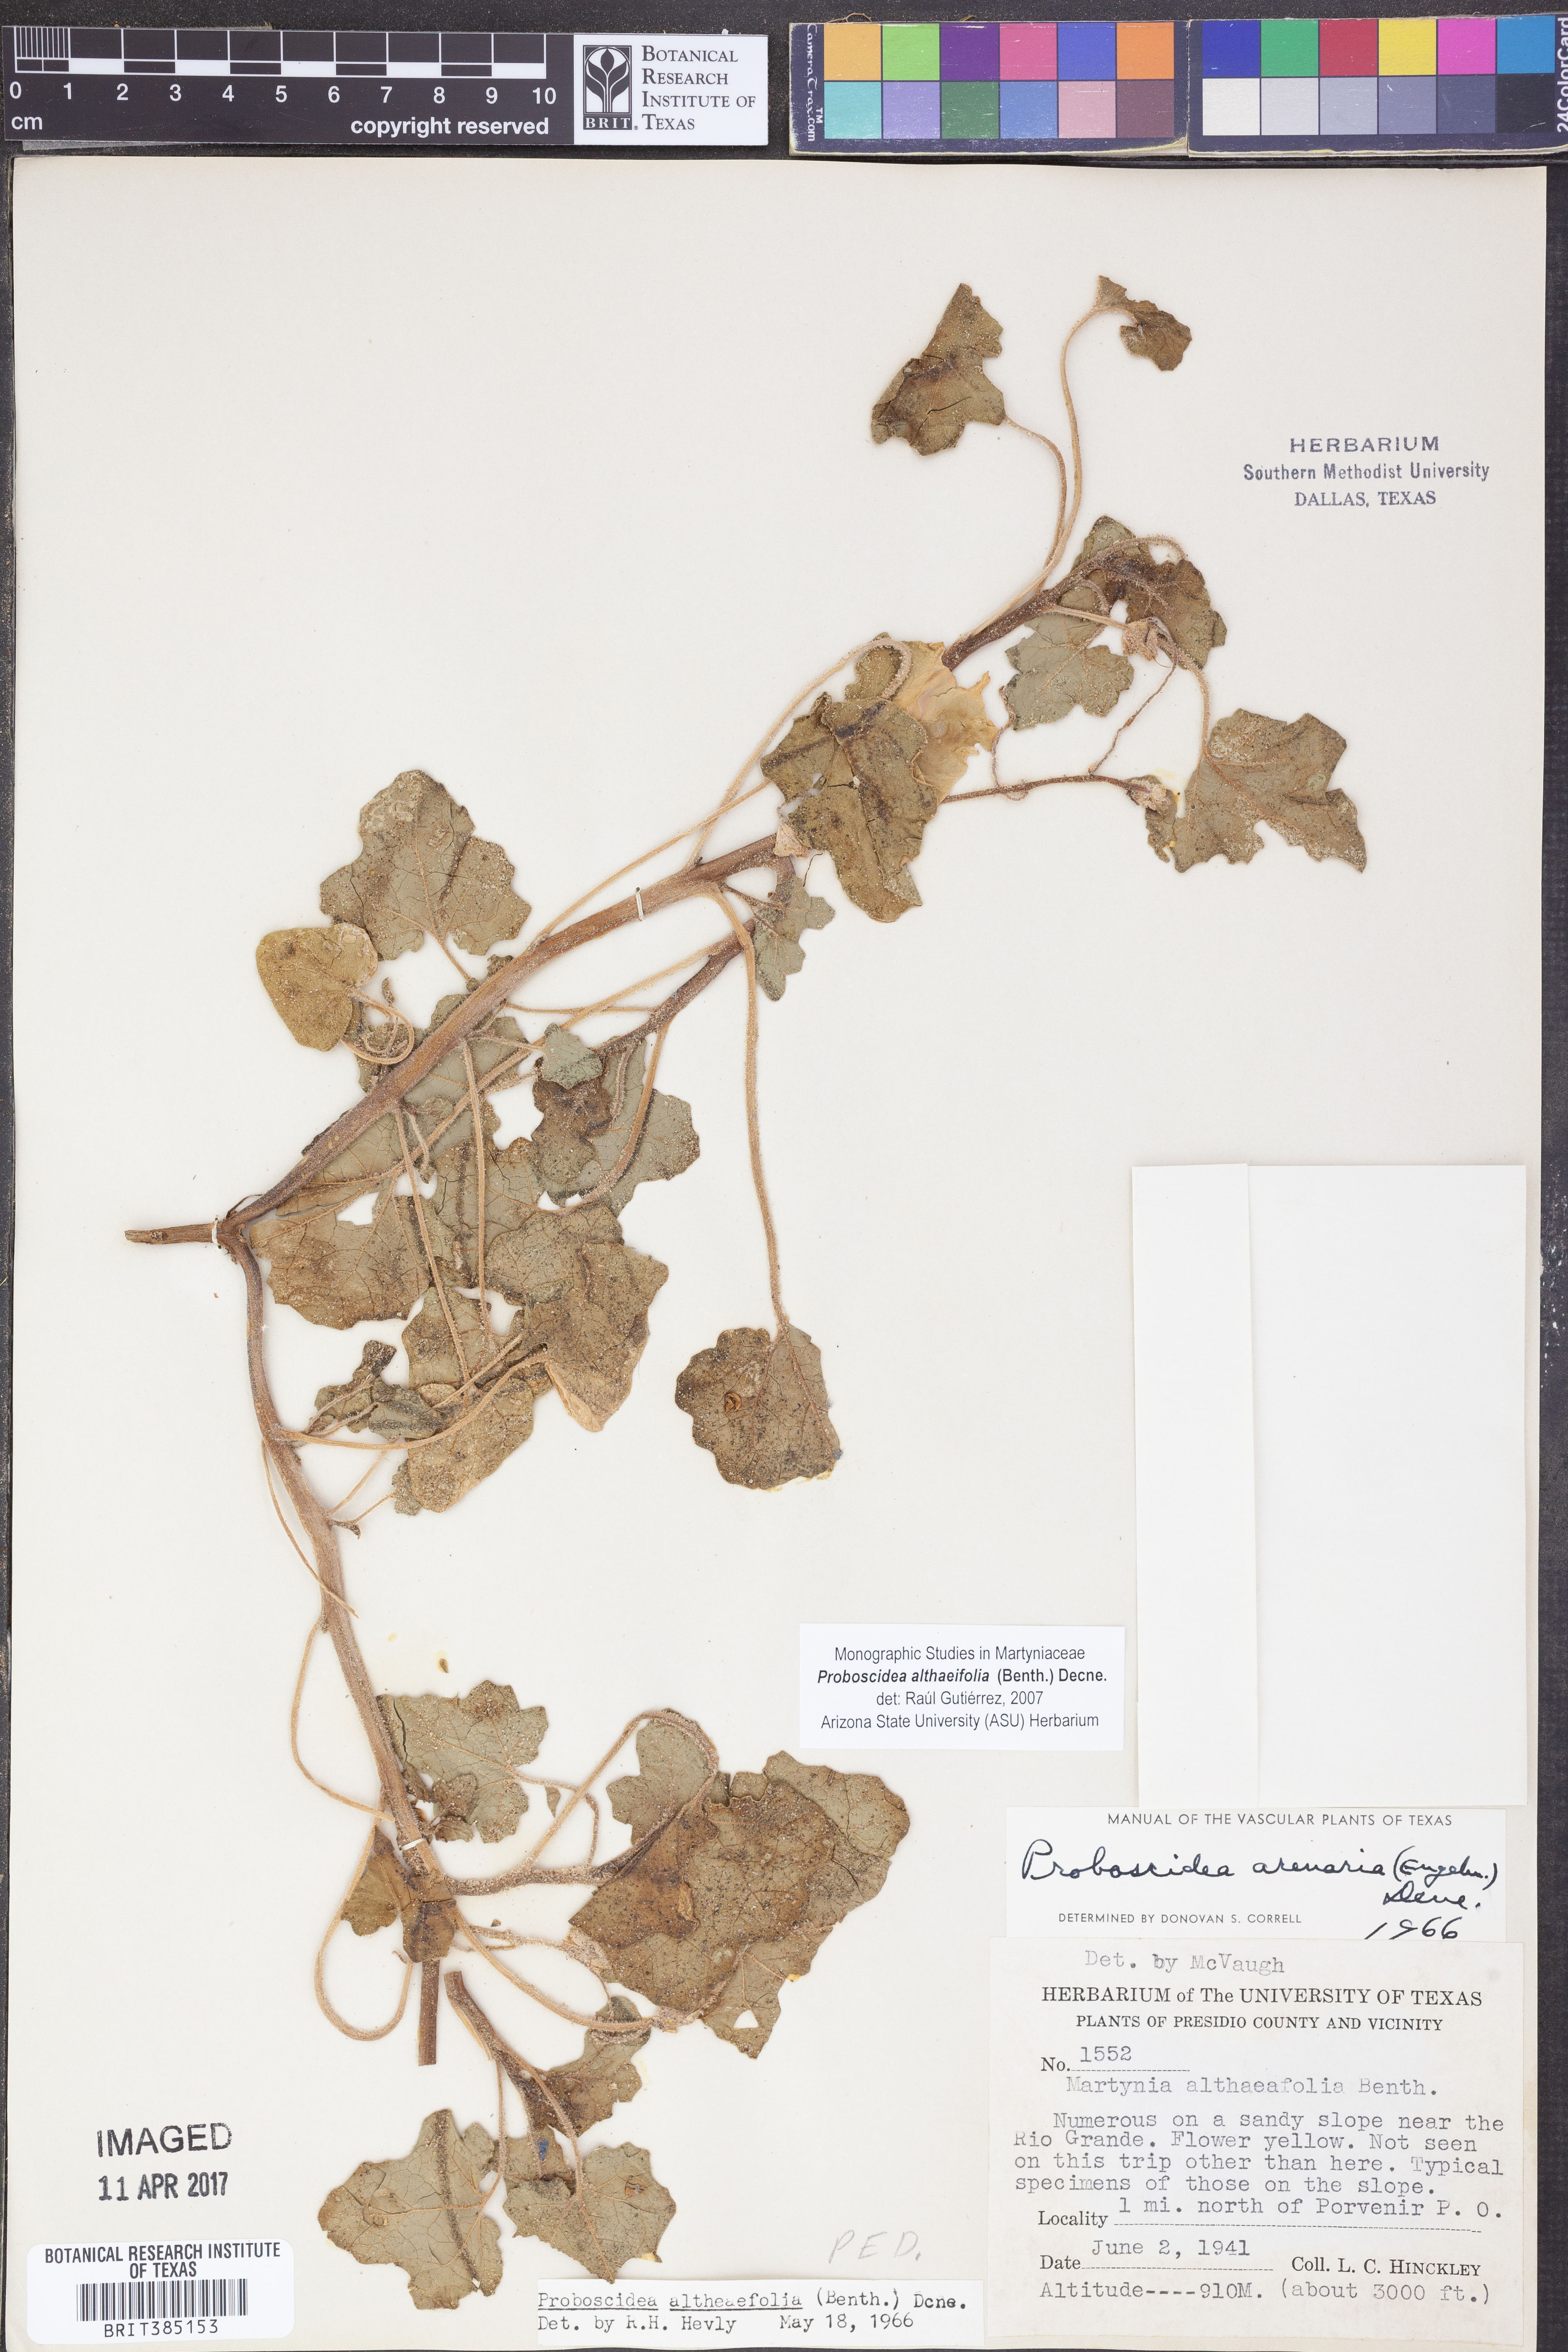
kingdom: Plantae
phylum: Tracheophyta
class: Magnoliopsida
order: Lamiales
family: Martyniaceae
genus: Proboscidea
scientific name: Proboscidea althaeifolia
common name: Desert unicorn-plant
